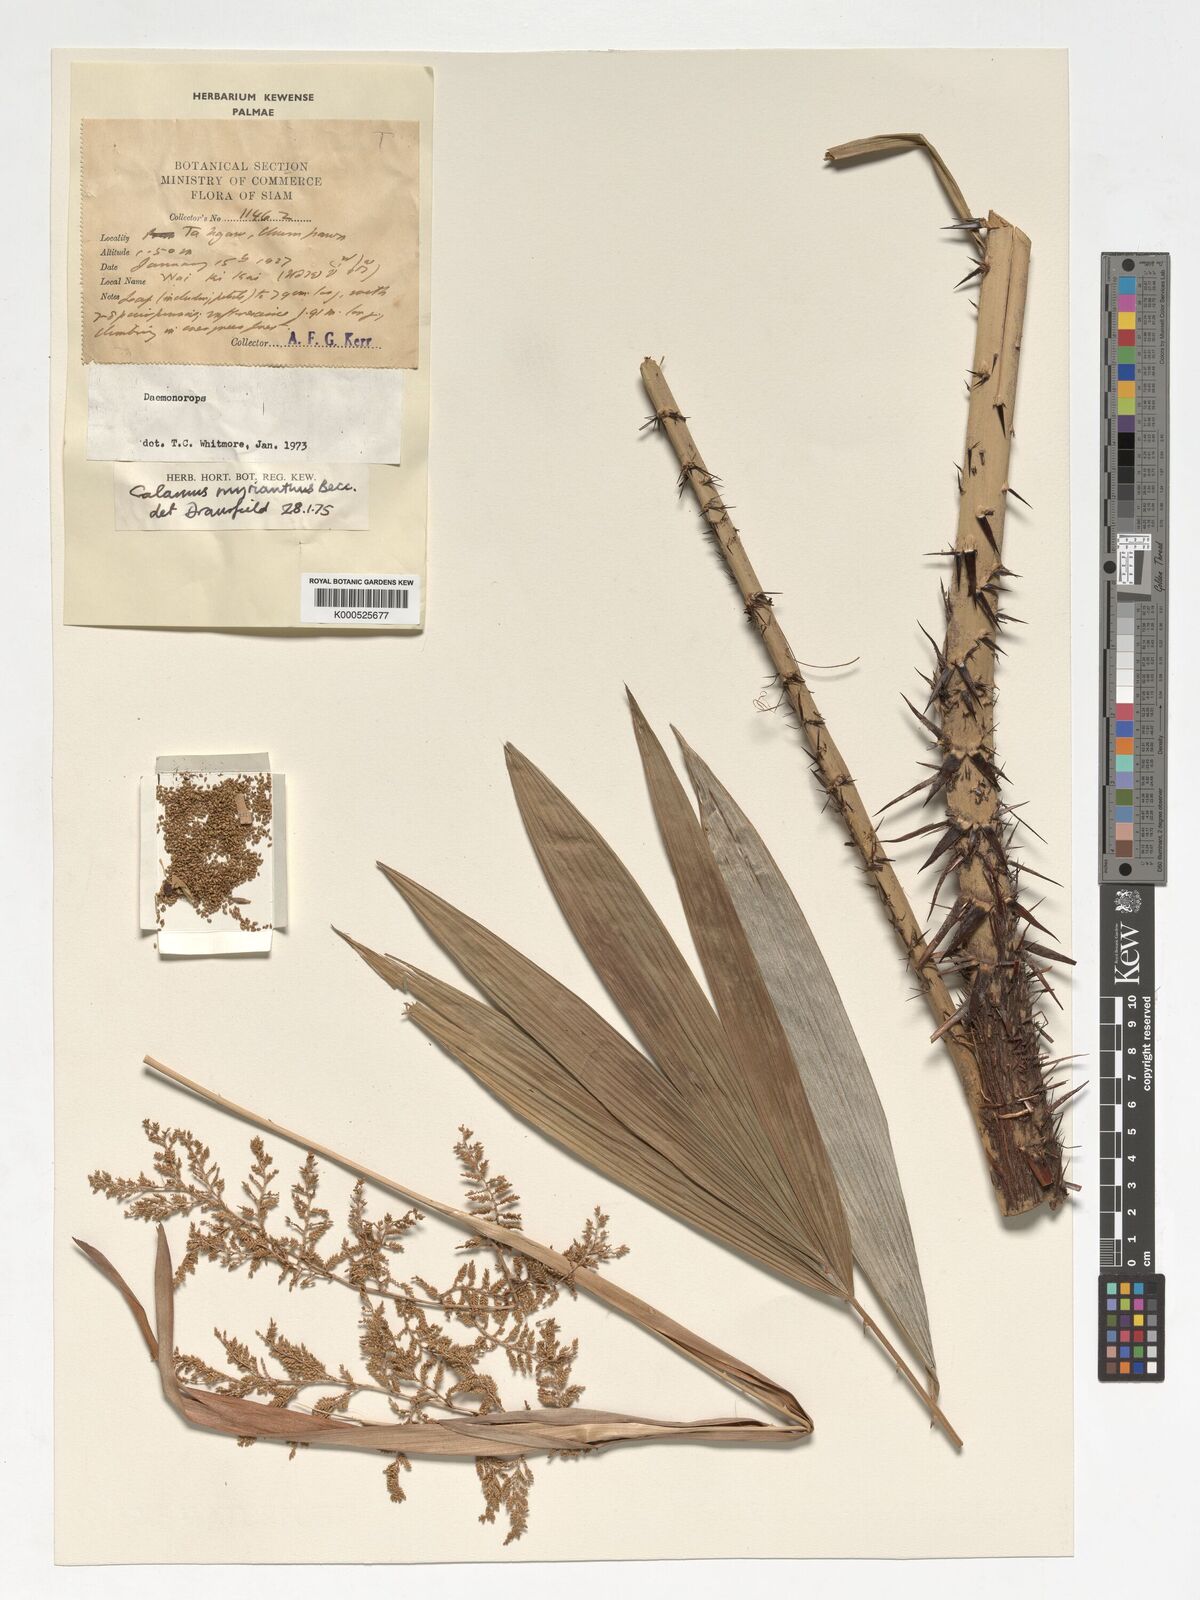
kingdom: Plantae
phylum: Tracheophyta
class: Liliopsida
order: Arecales
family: Arecaceae
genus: Calamus
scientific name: Calamus myrianthus
